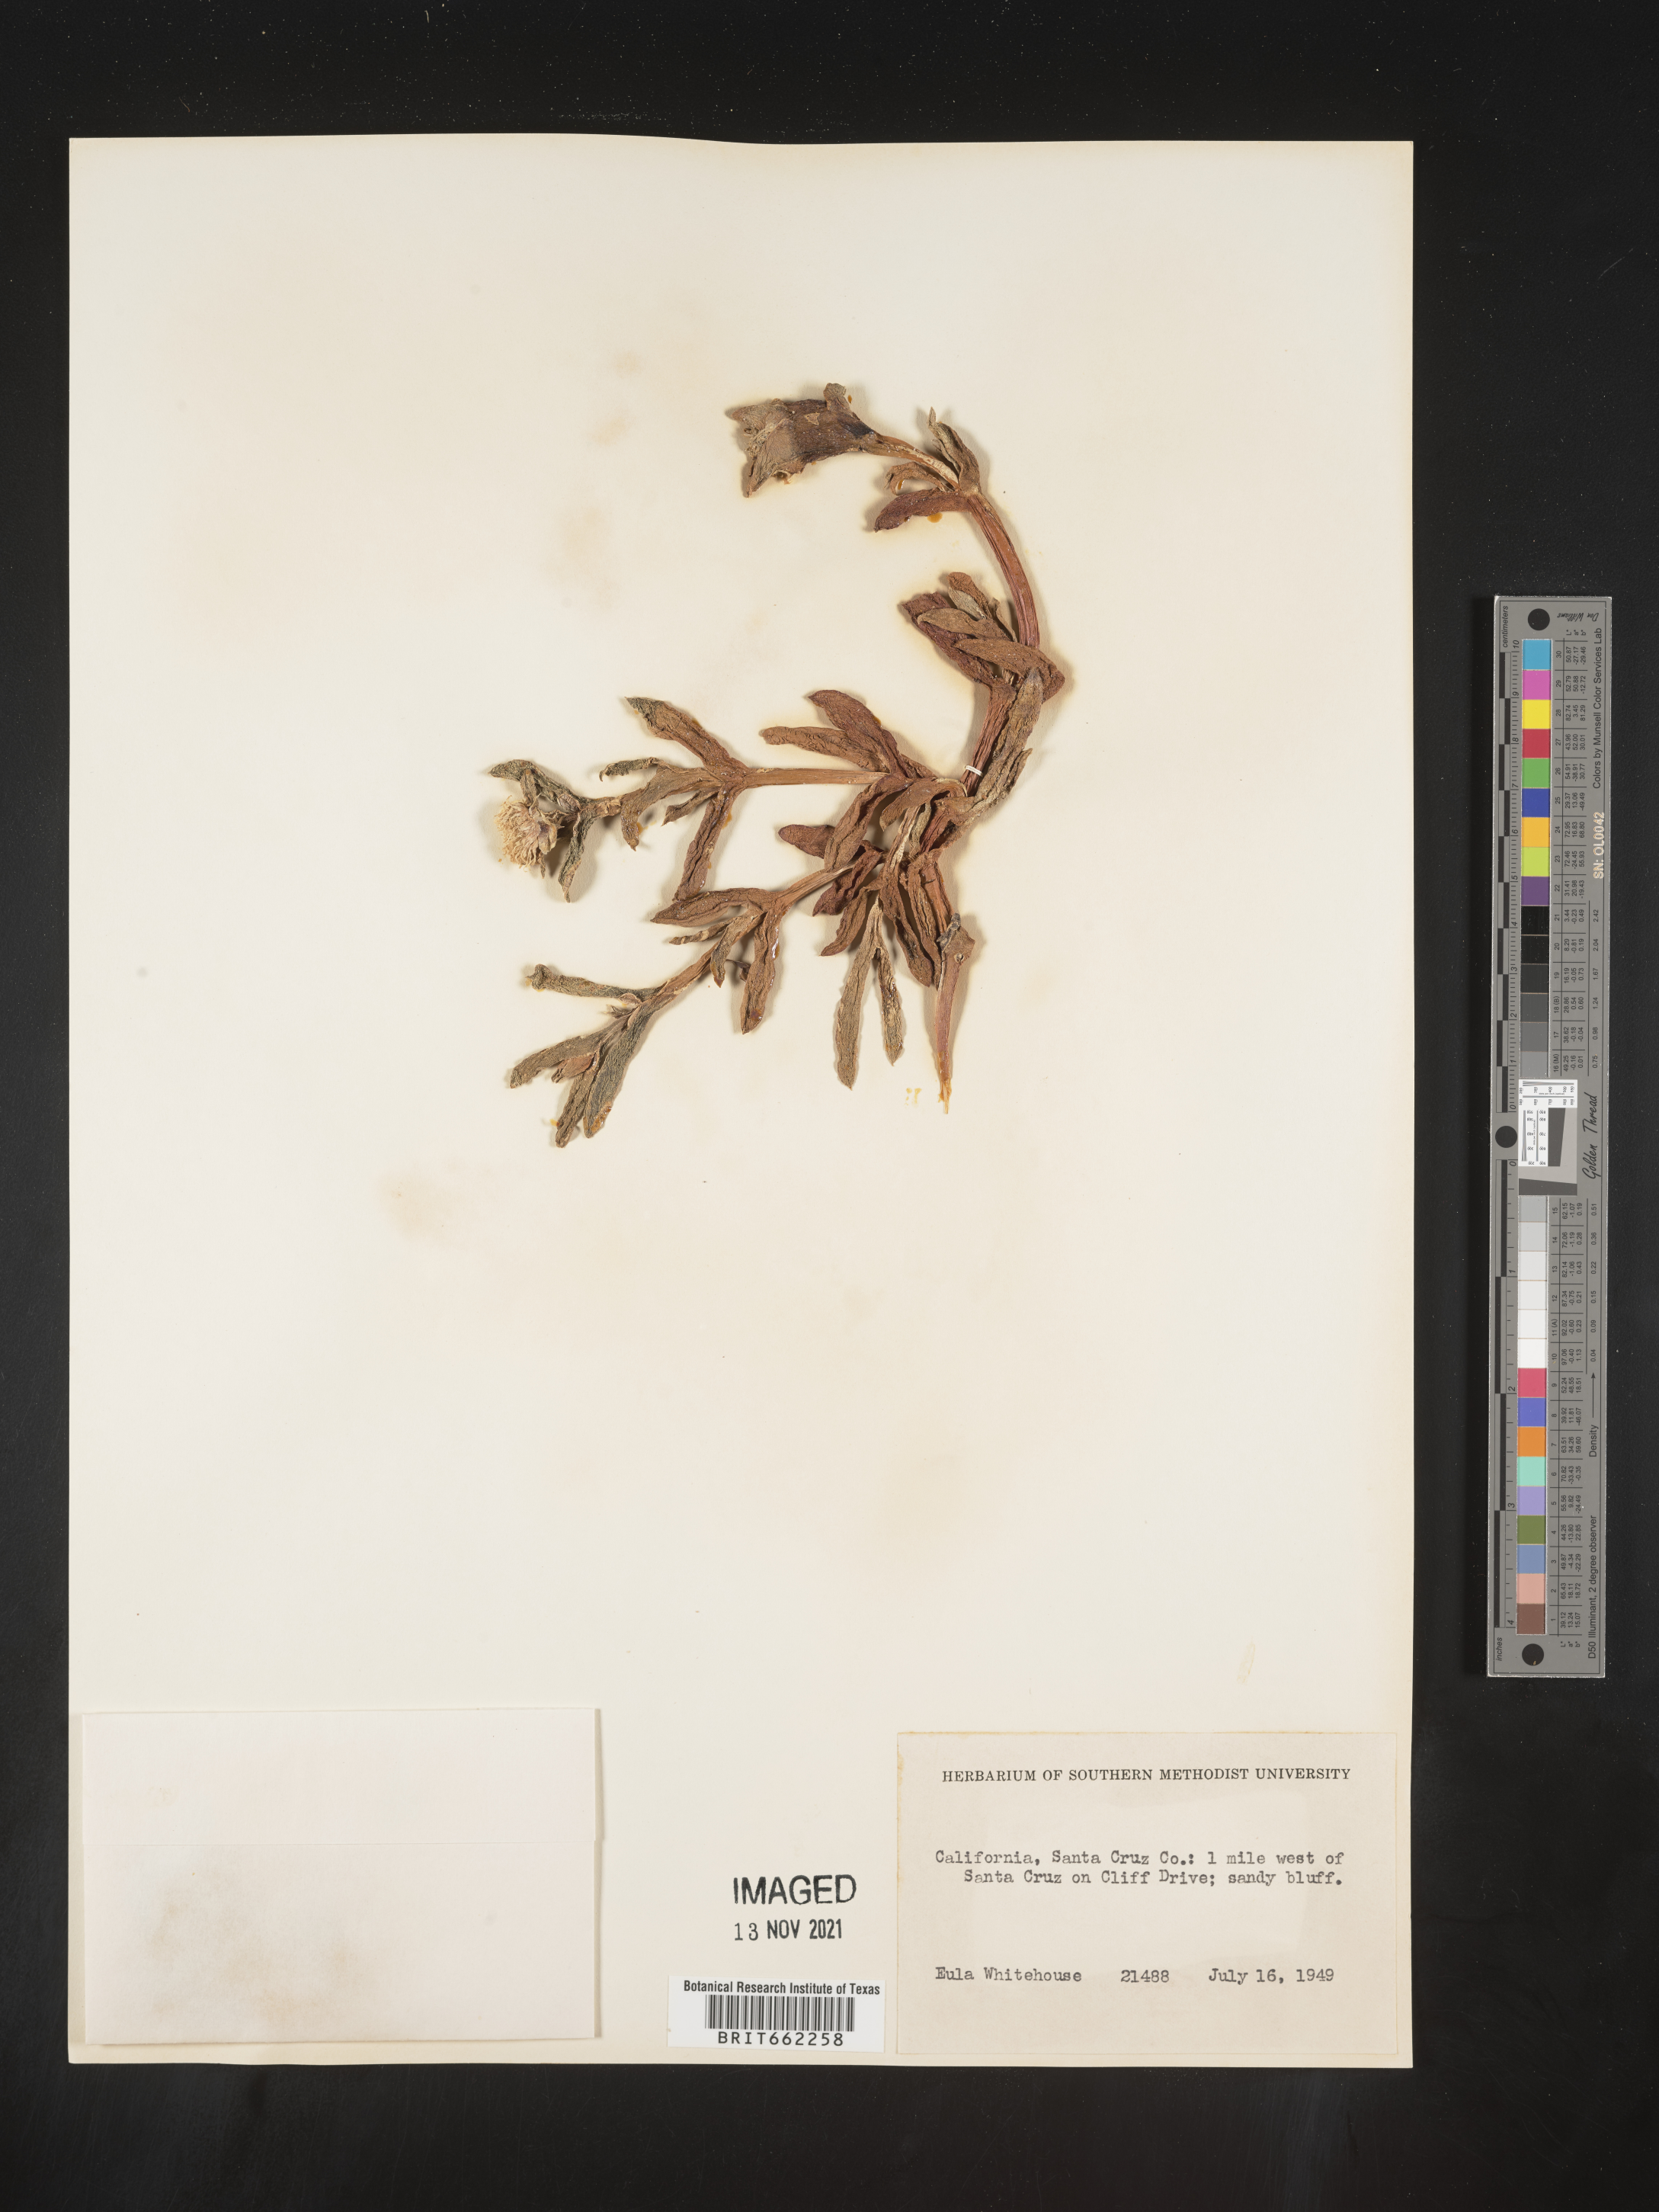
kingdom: Plantae
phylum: Tracheophyta
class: Magnoliopsida
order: Caryophyllales
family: Aizoaceae
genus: Mesembryanthemum
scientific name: Mesembryanthemum
